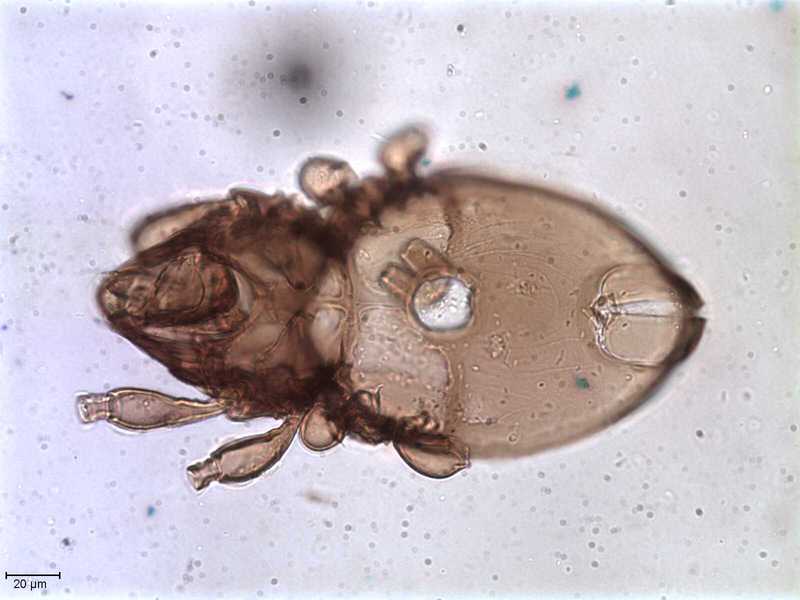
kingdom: Animalia
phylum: Arthropoda
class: Arachnida
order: Sarcoptiformes
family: Oppiidae
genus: Oppiella
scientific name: Oppiella
